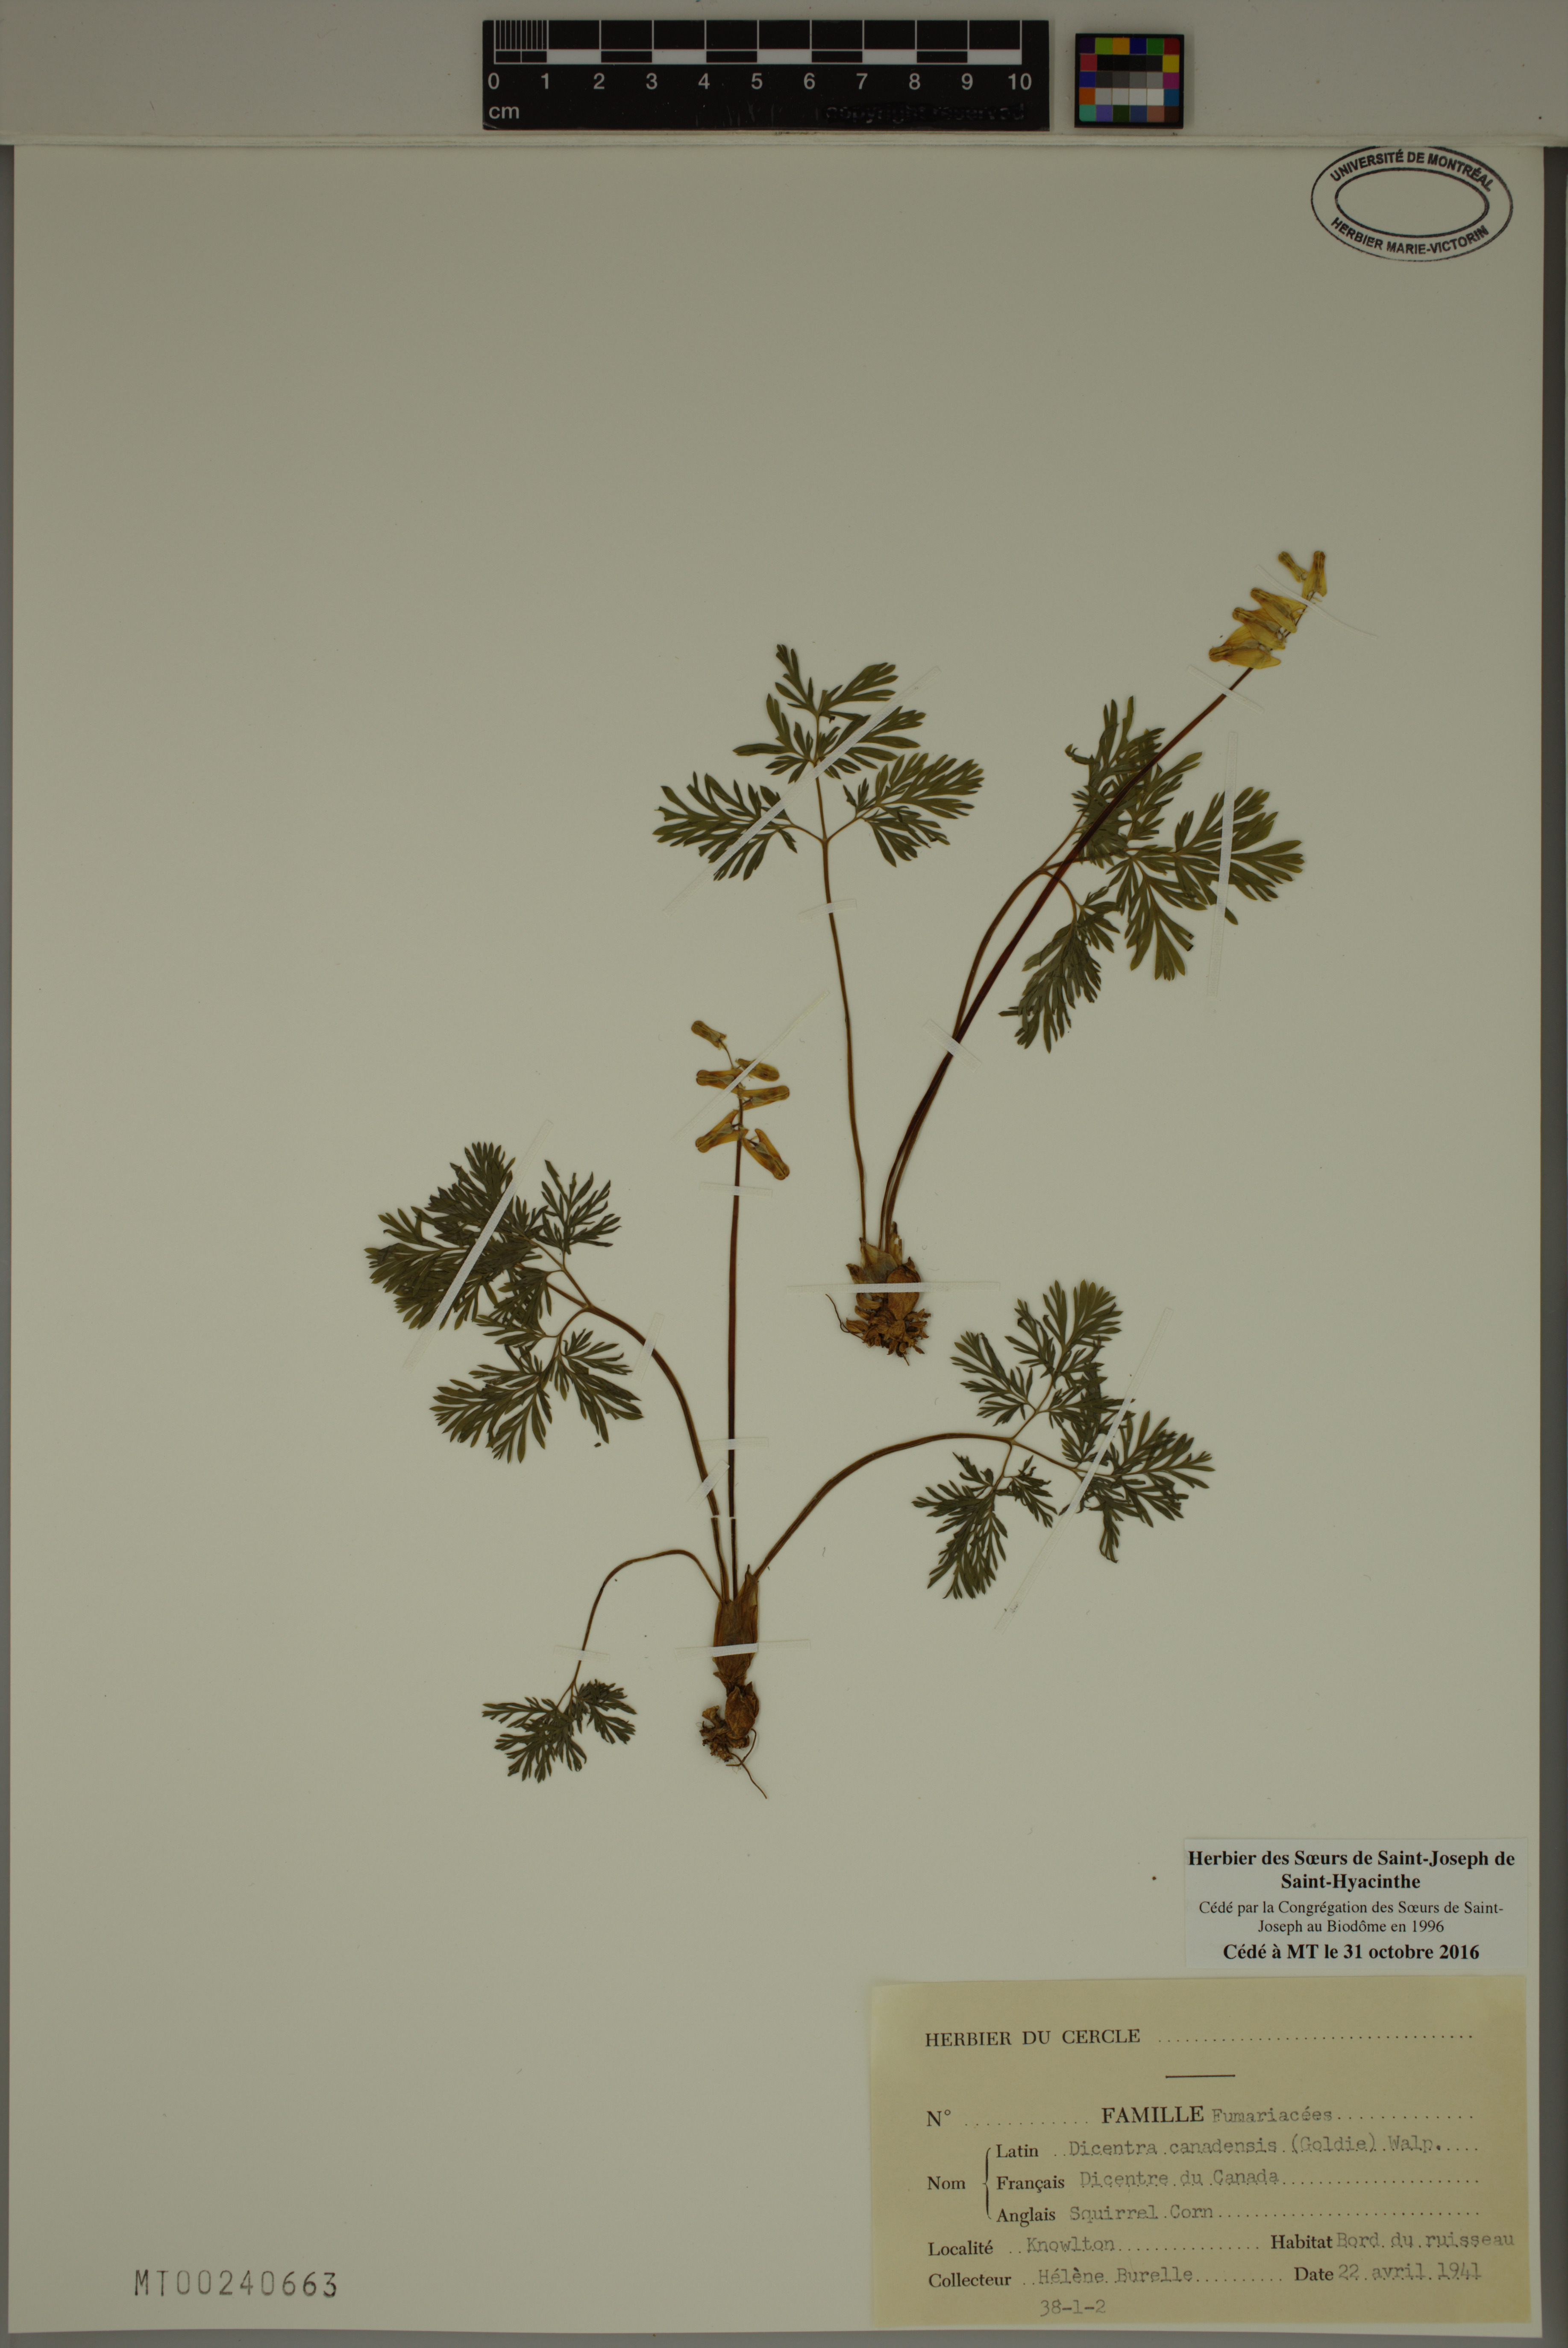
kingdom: Plantae
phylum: Tracheophyta
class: Magnoliopsida
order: Ranunculales
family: Papaveraceae
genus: Dicentra
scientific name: Dicentra canadensis
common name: Squirrel-corn
